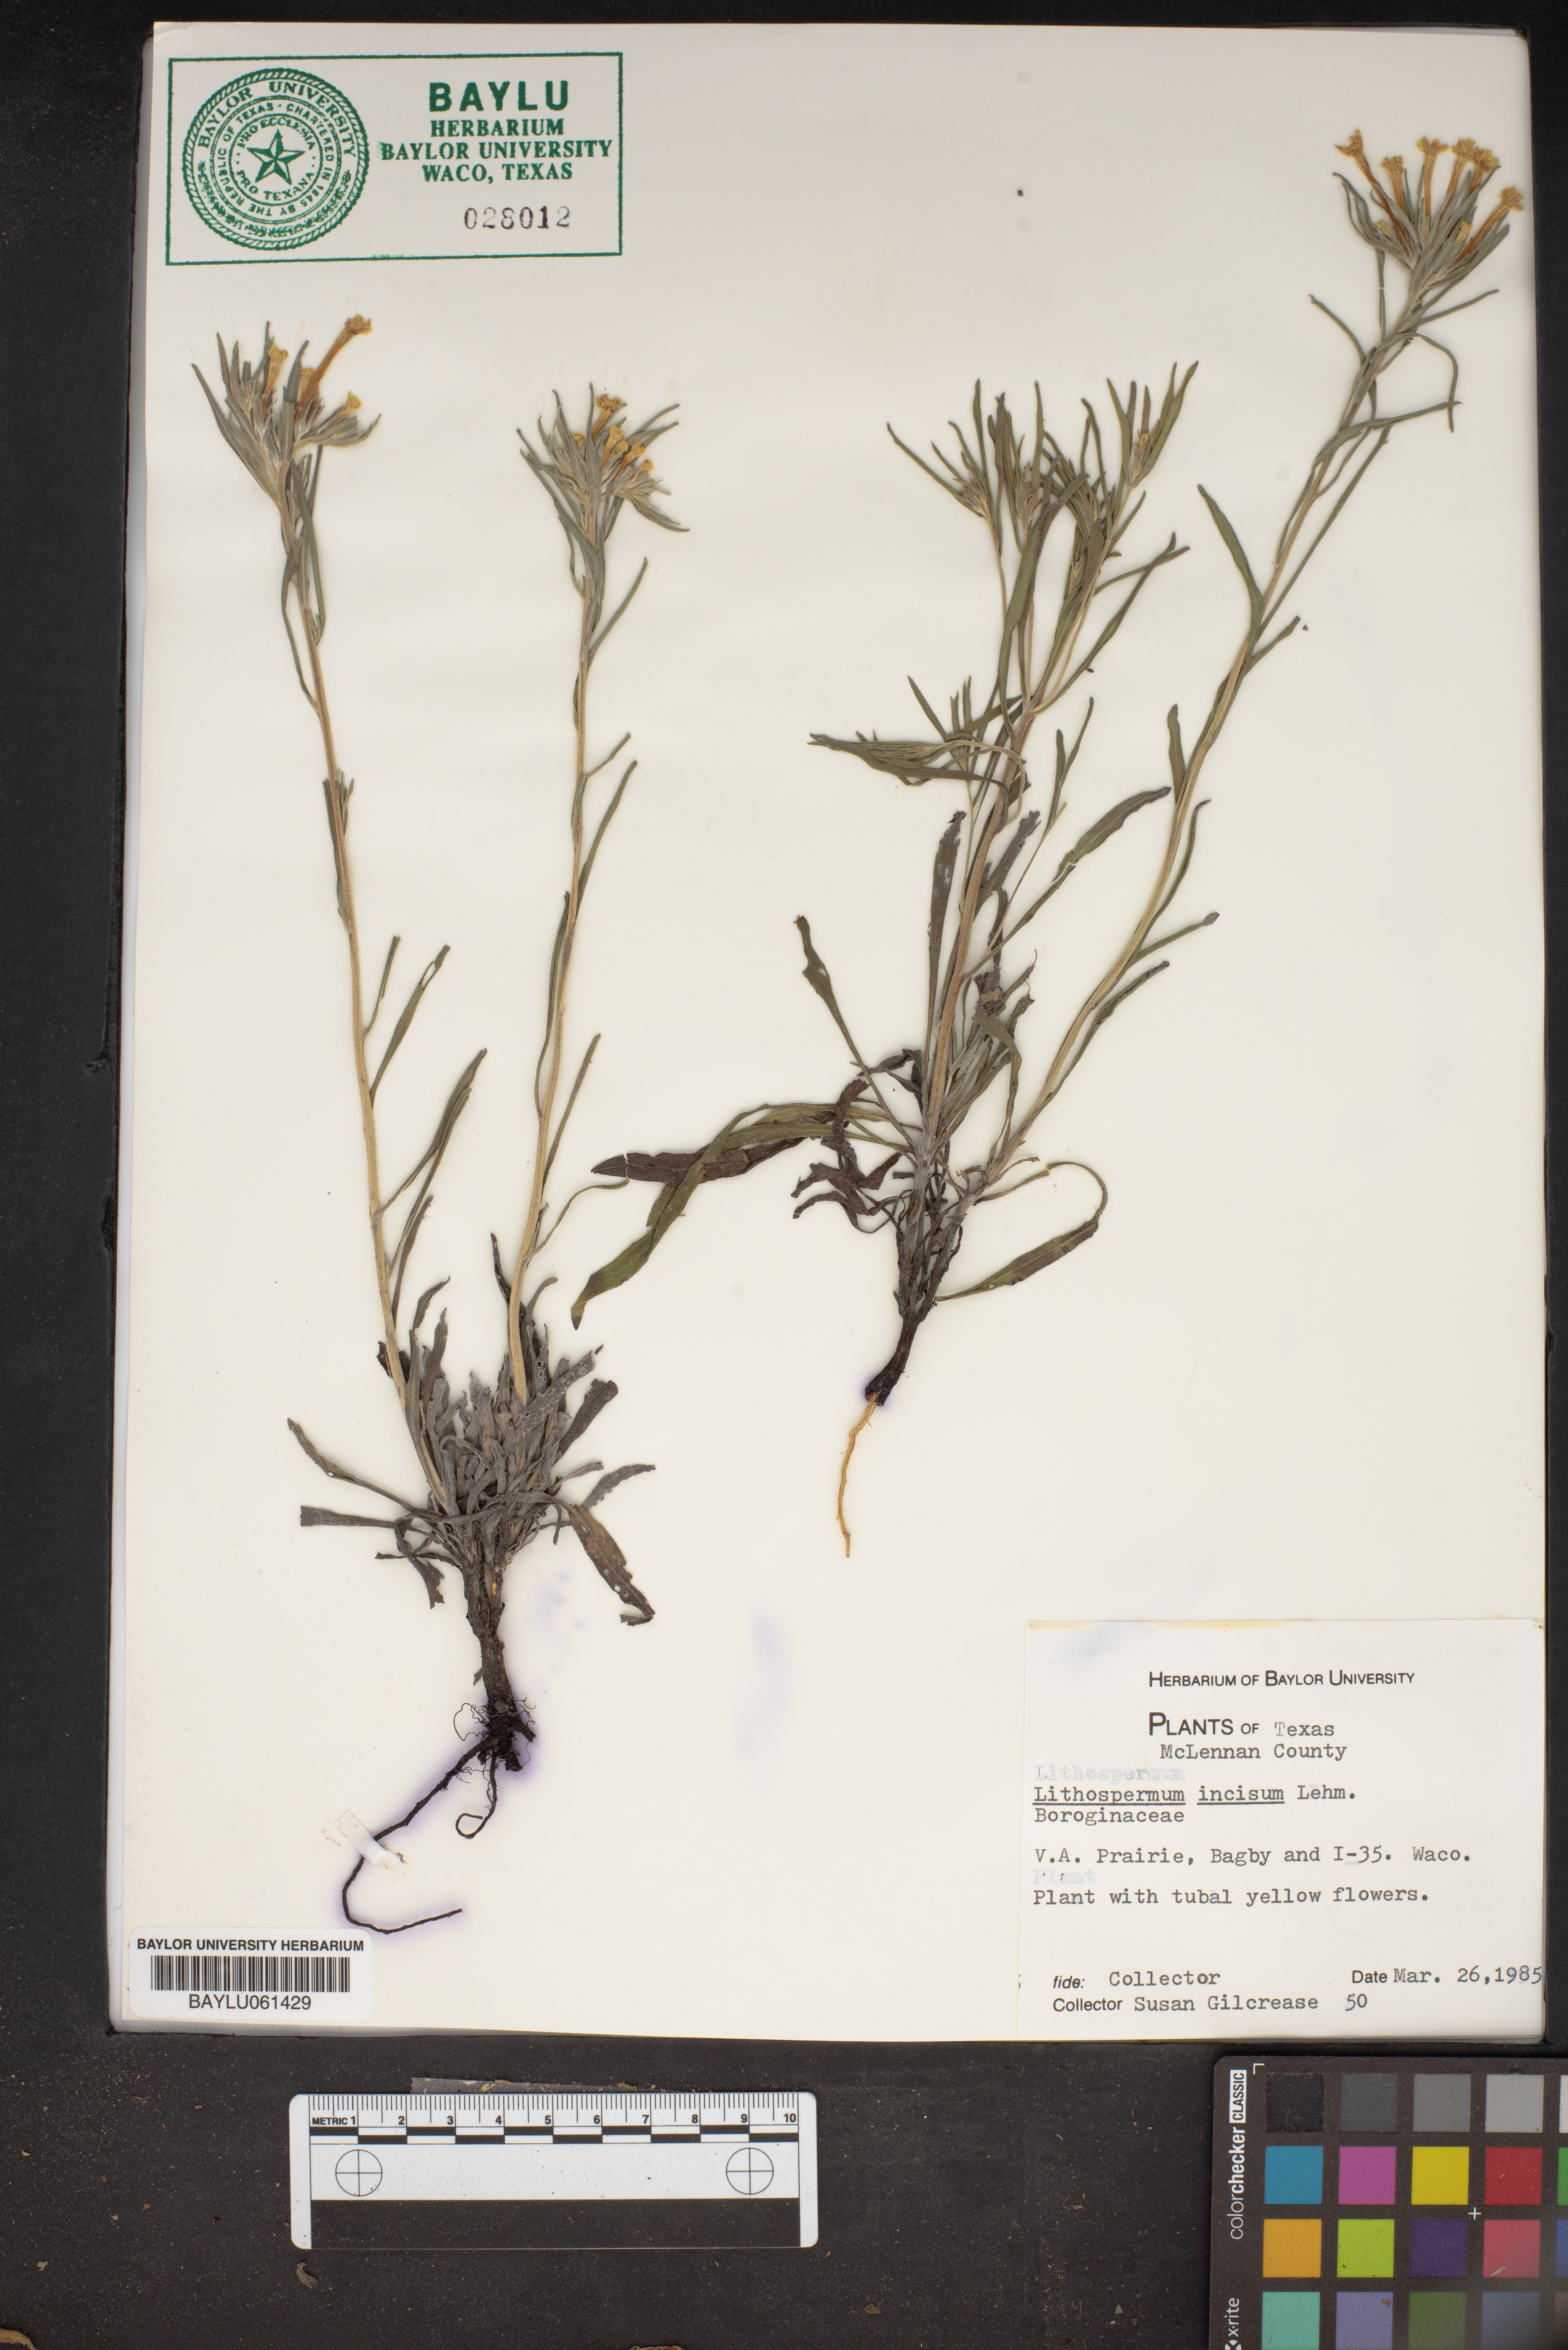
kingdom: Plantae
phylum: Tracheophyta
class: Magnoliopsida
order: Boraginales
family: Boraginaceae
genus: Lithospermum
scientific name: Lithospermum incisum
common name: Fringed gromwell
